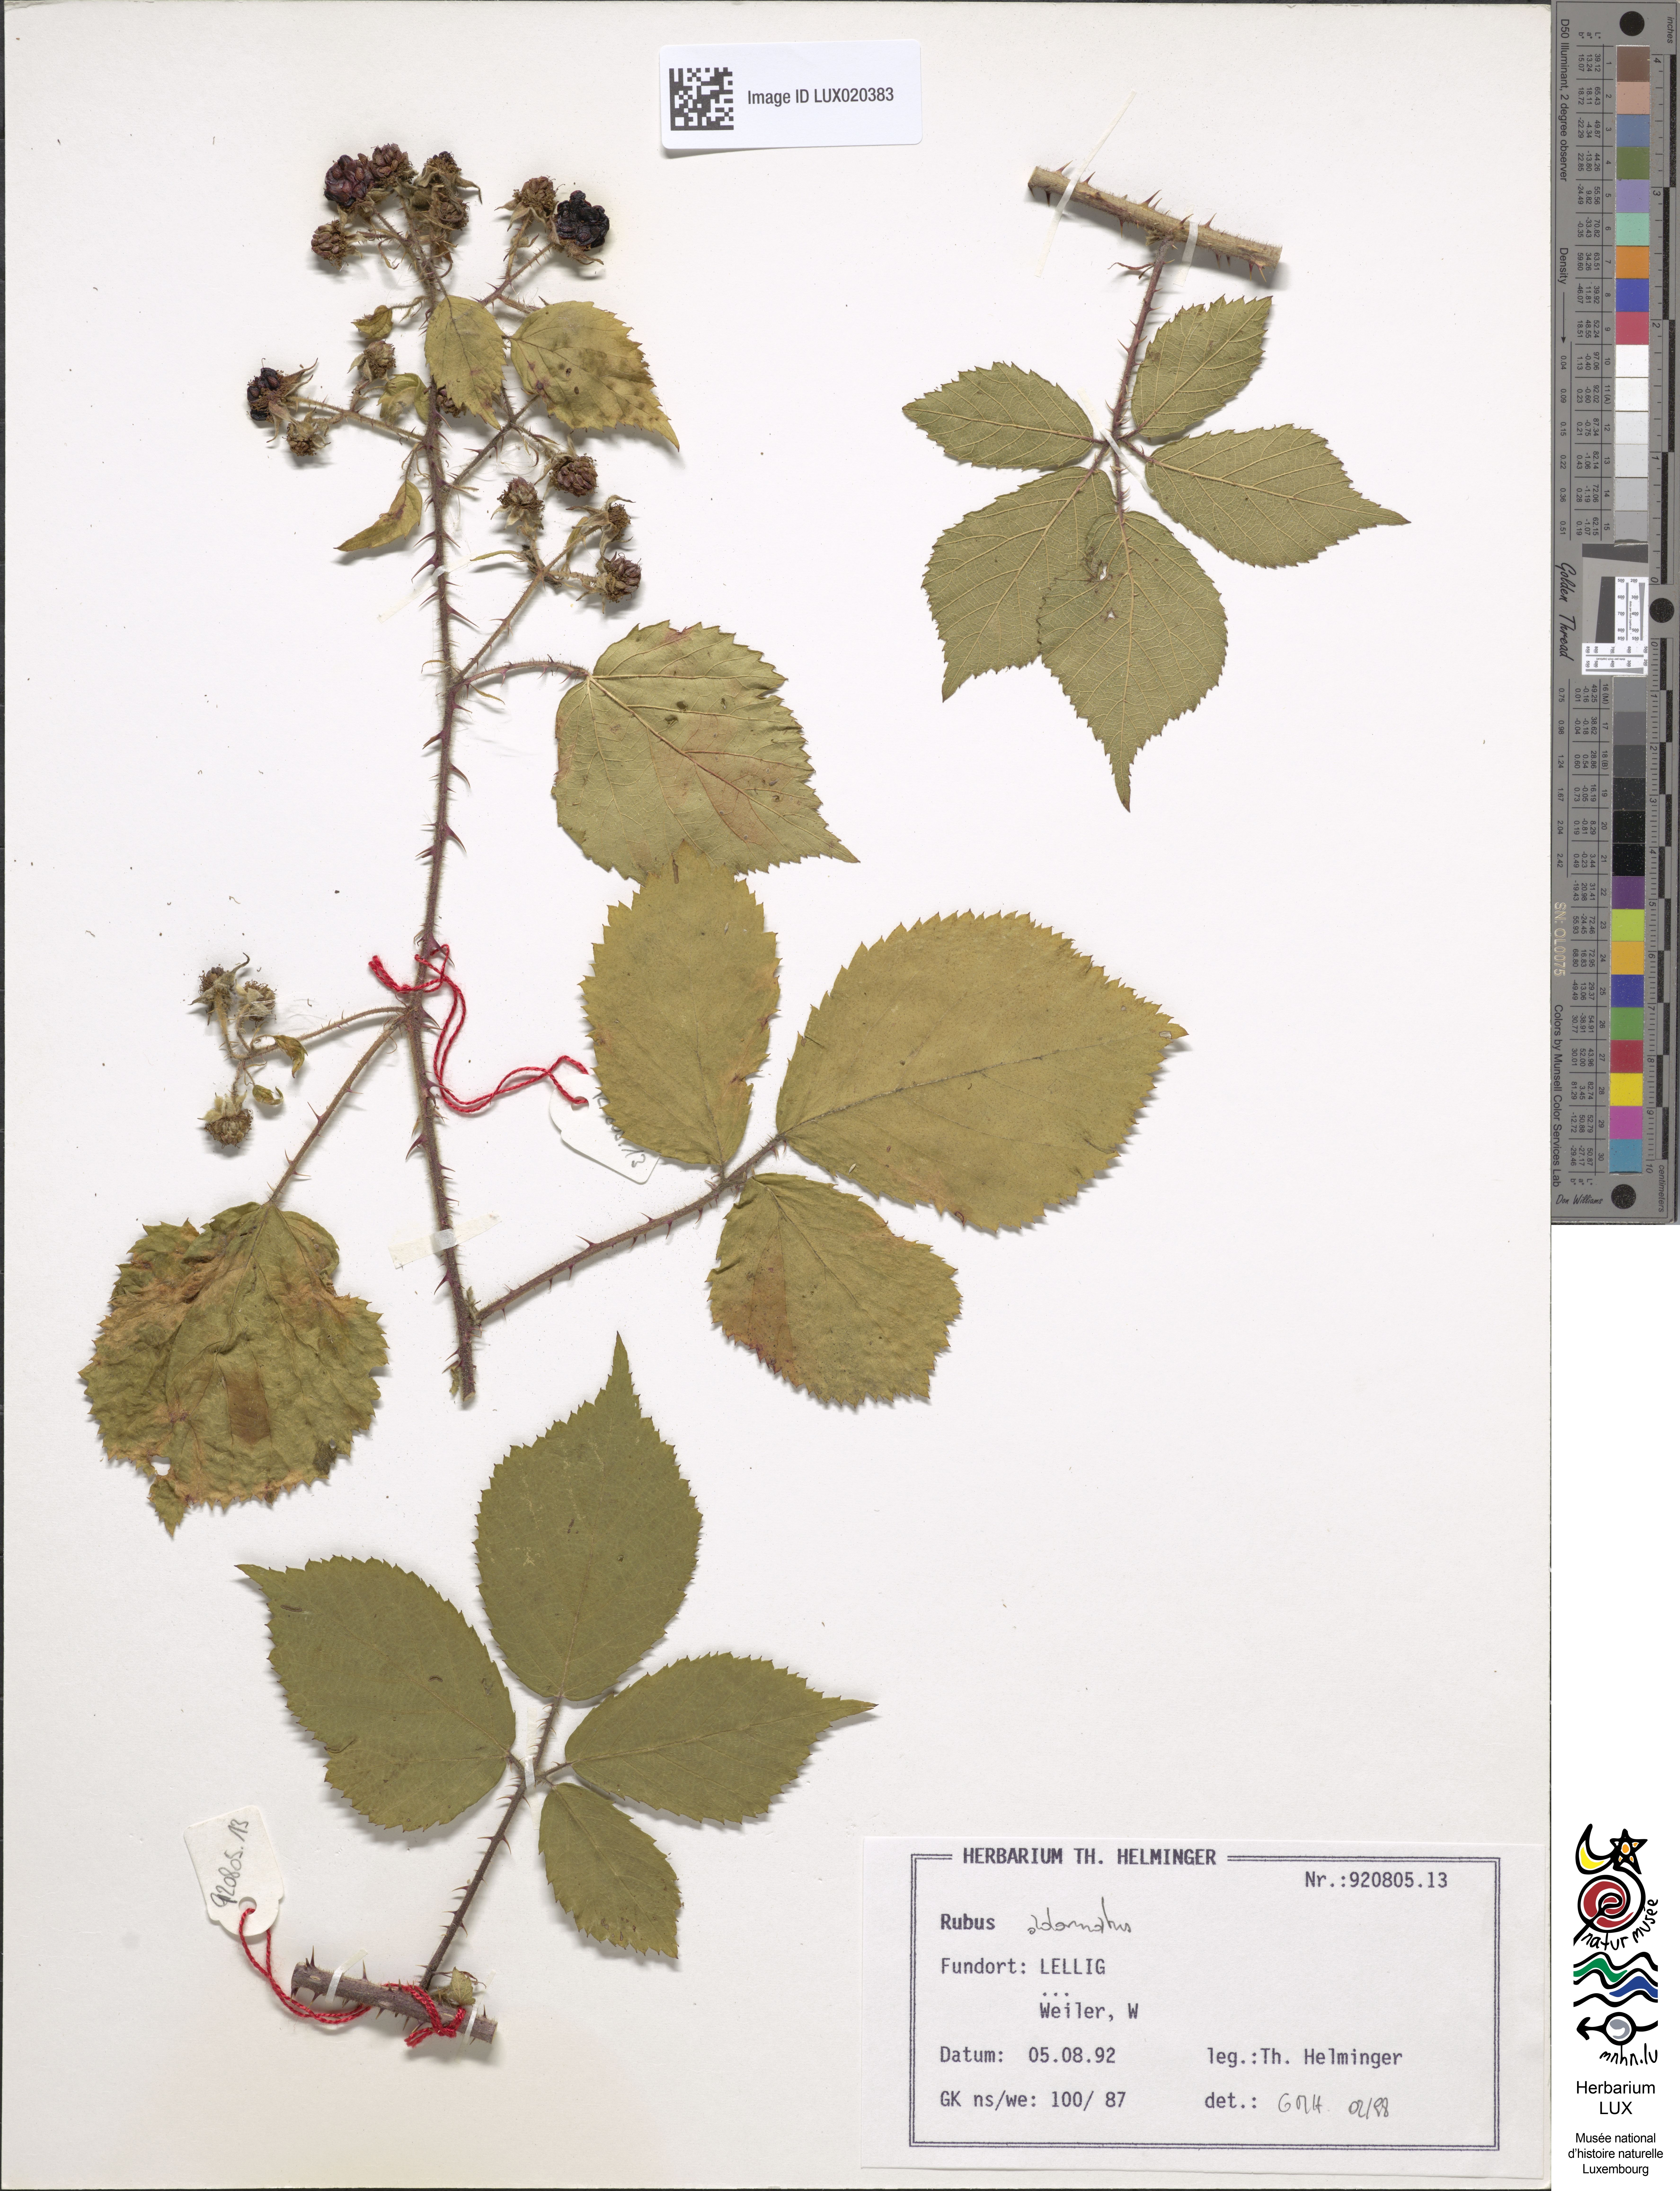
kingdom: Plantae
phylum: Tracheophyta
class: Magnoliopsida
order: Rosales
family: Rosaceae
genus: Rubus
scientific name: Rubus
